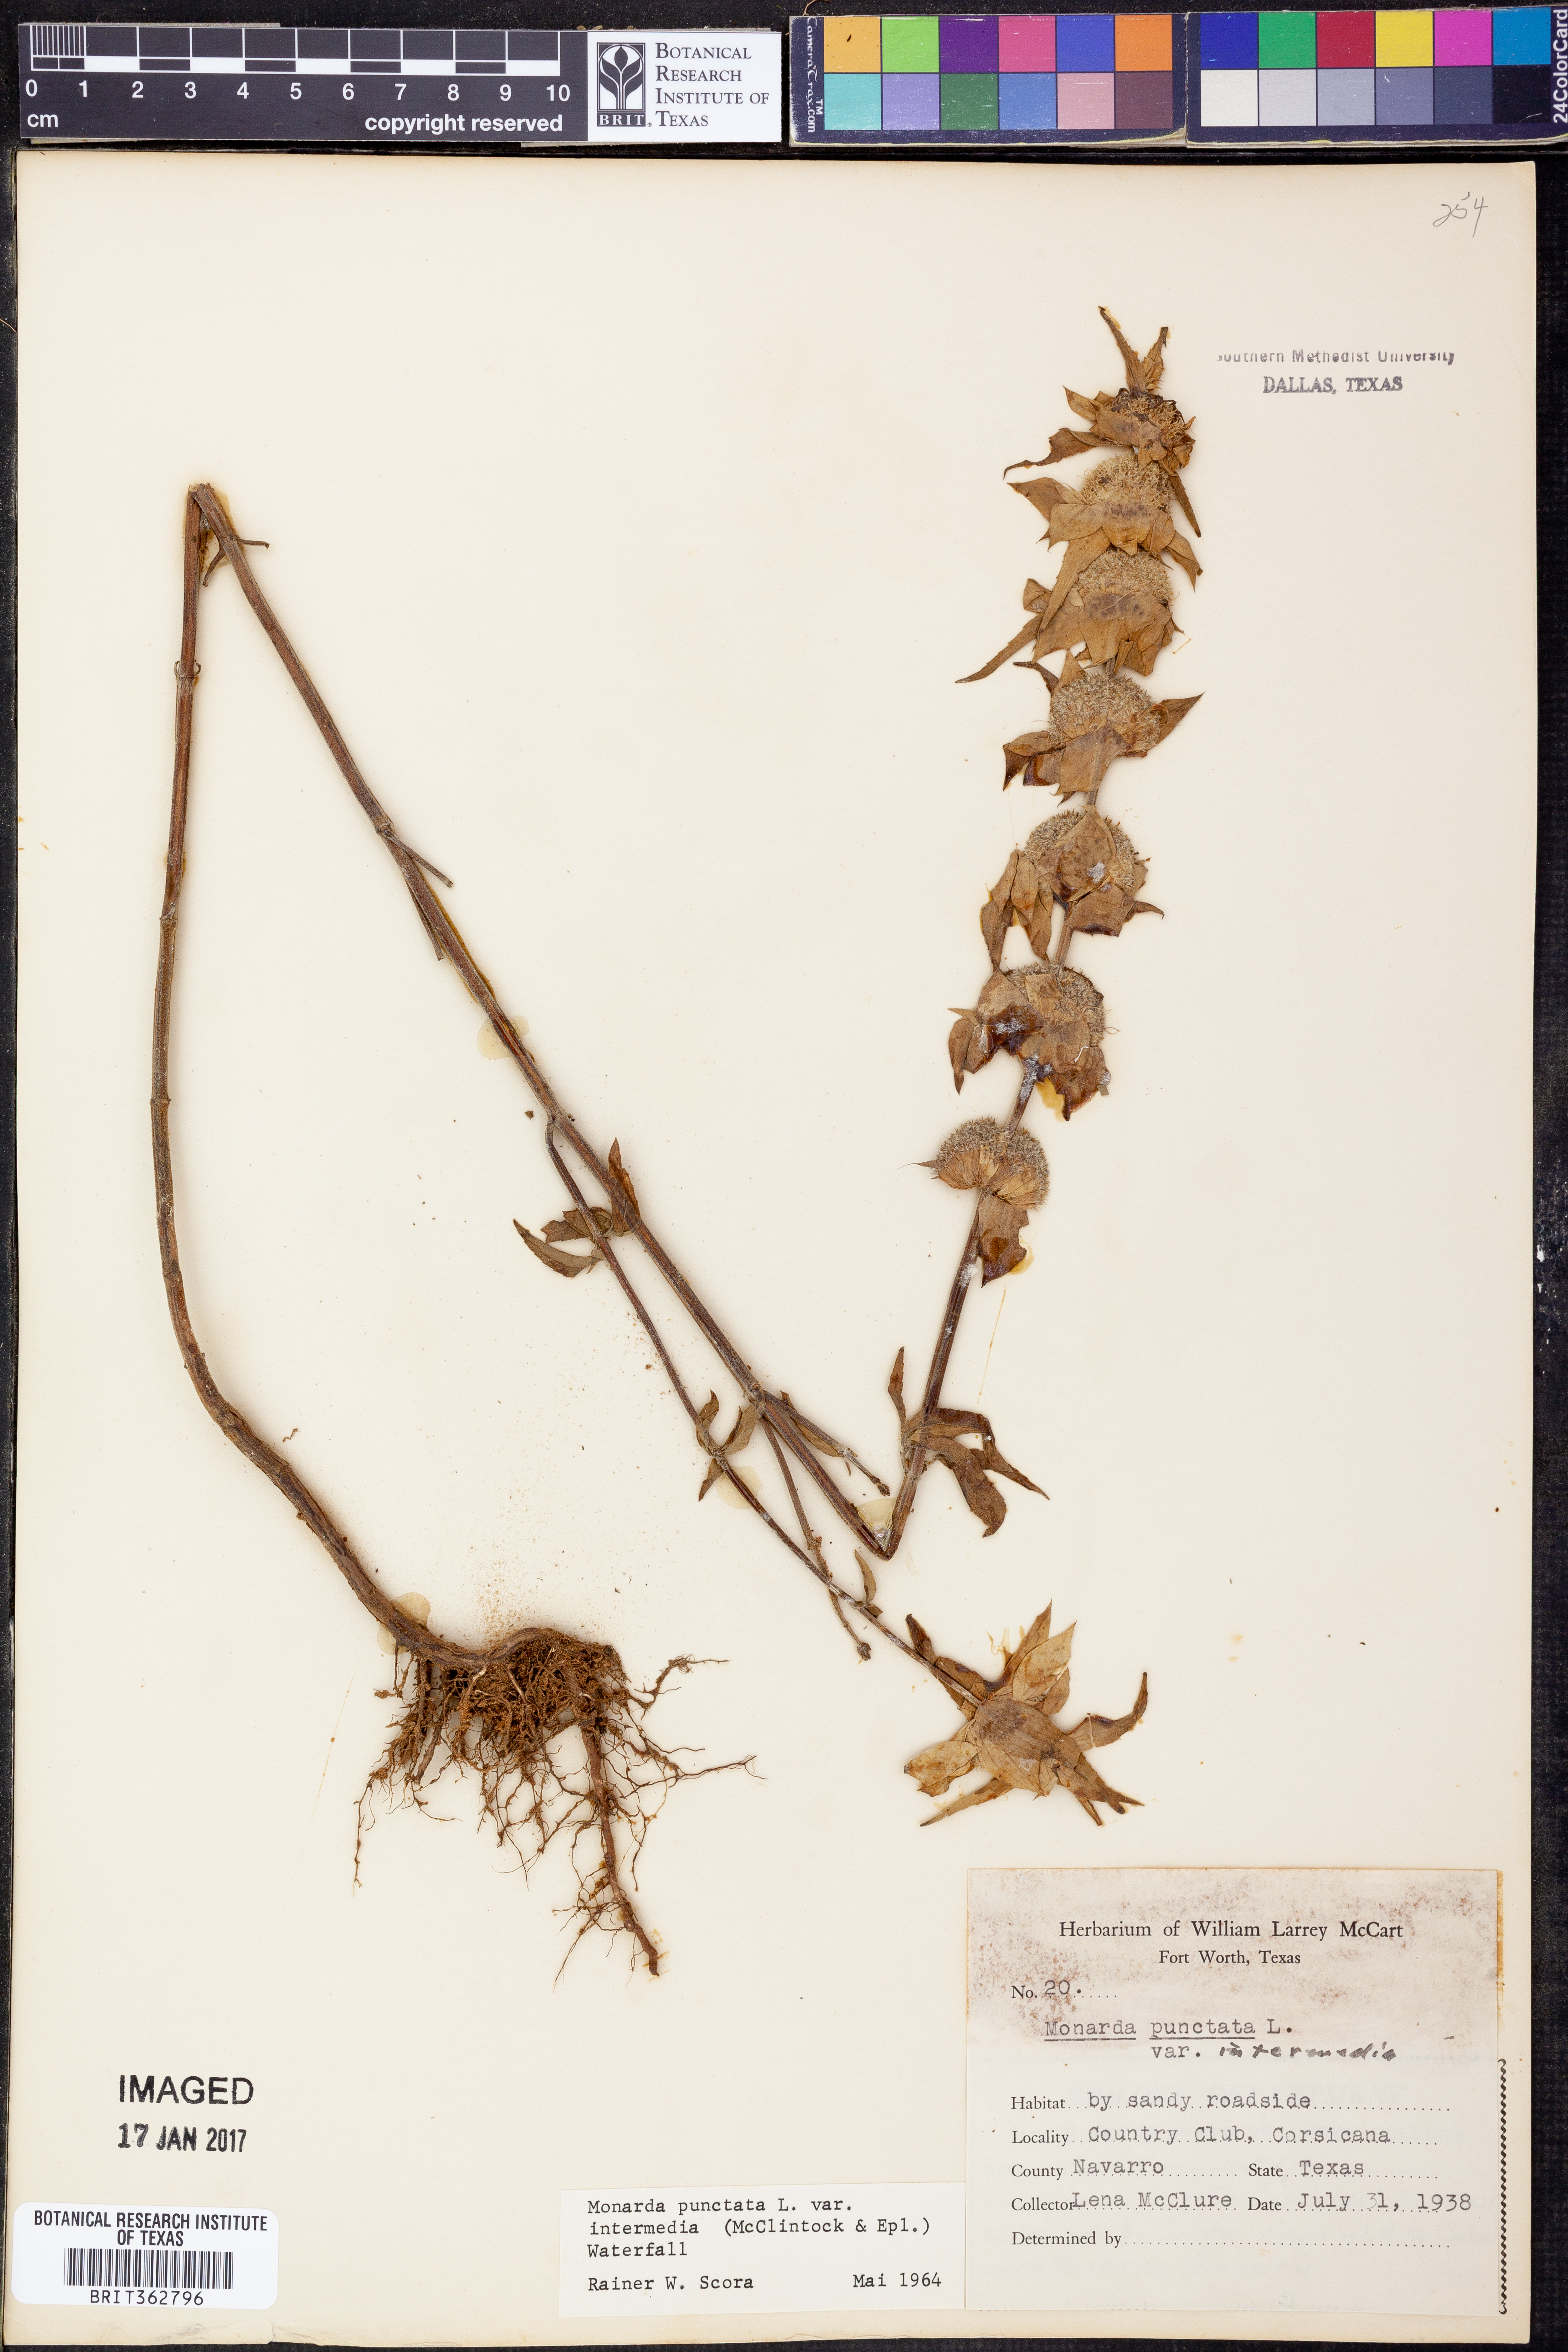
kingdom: Plantae
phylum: Tracheophyta
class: Magnoliopsida
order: Lamiales
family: Lamiaceae
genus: Monarda
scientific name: Monarda punctata
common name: Dotted monarda
